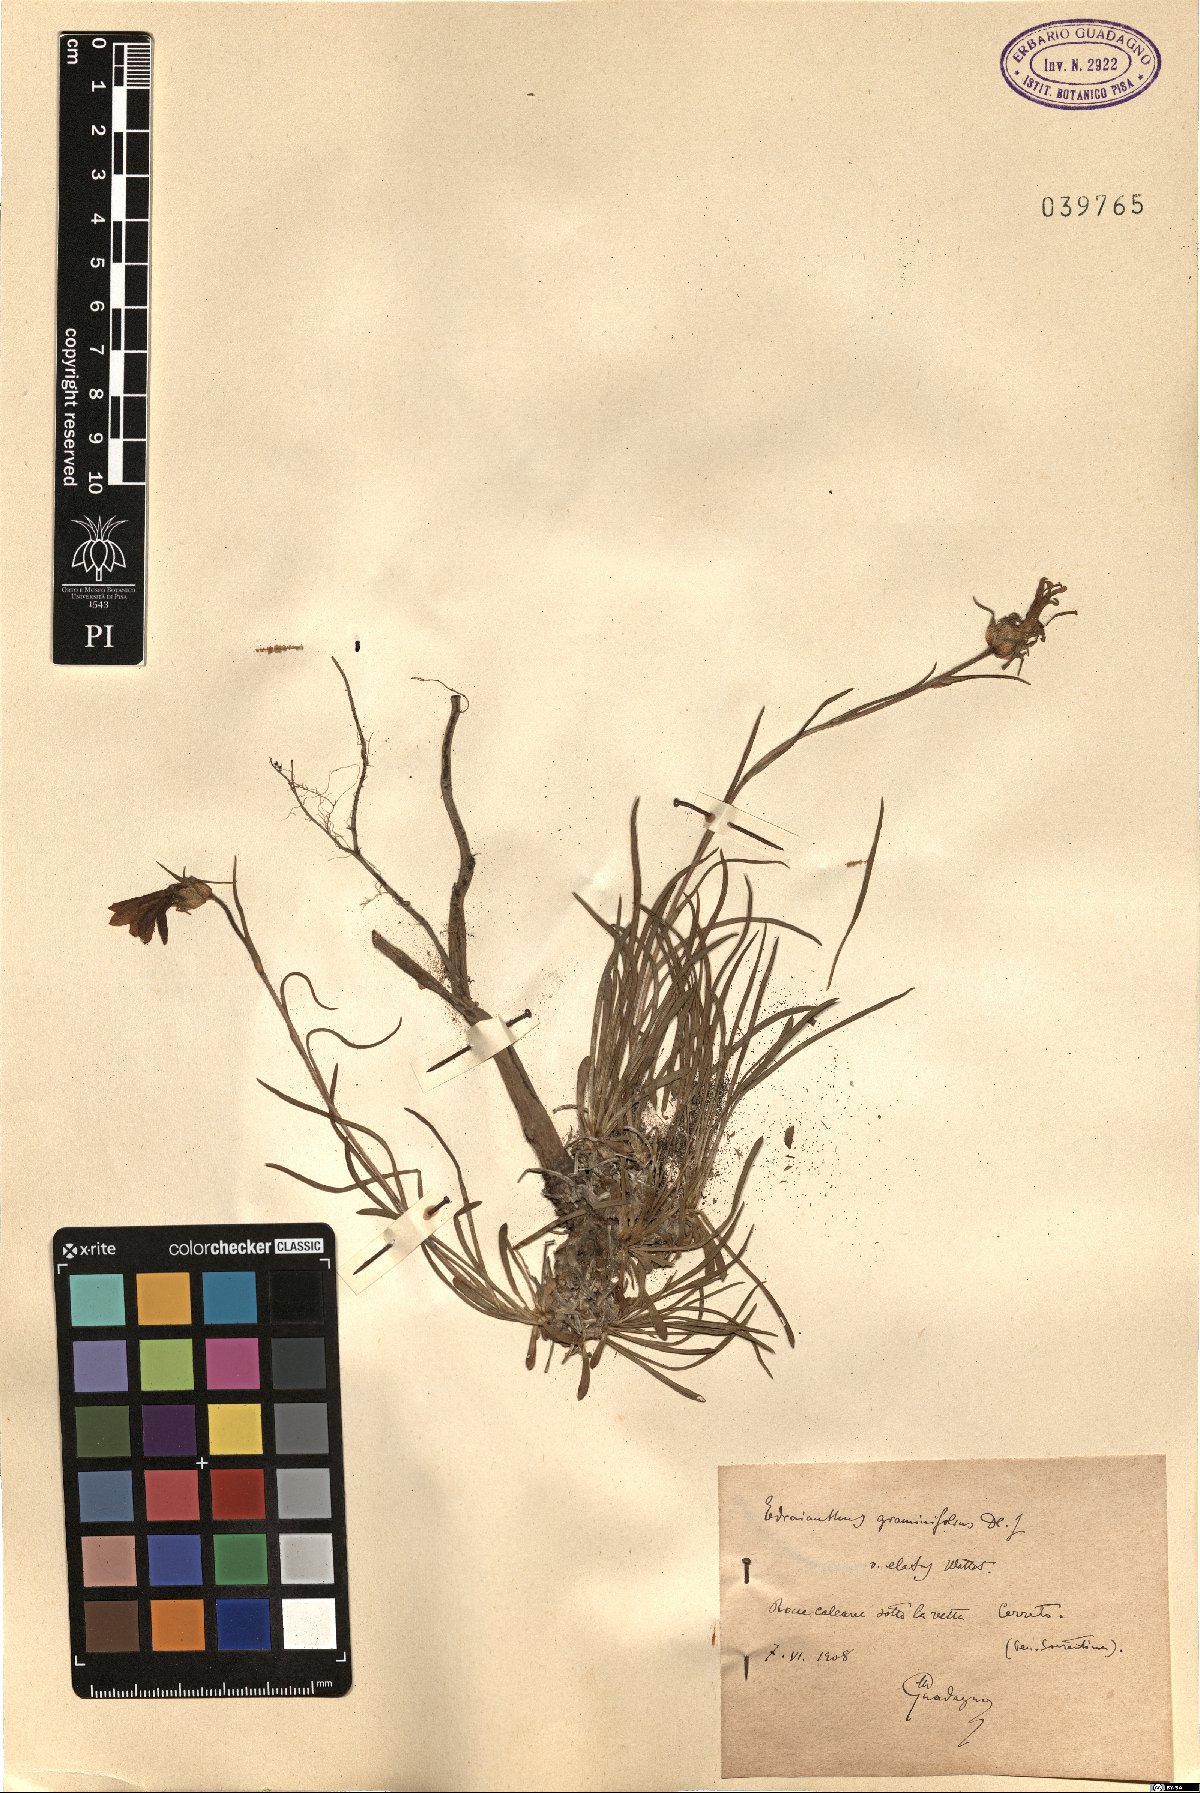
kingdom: Plantae
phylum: Tracheophyta
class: Magnoliopsida
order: Asterales
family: Campanulaceae
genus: Edraianthus
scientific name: Edraianthus graminifolius
